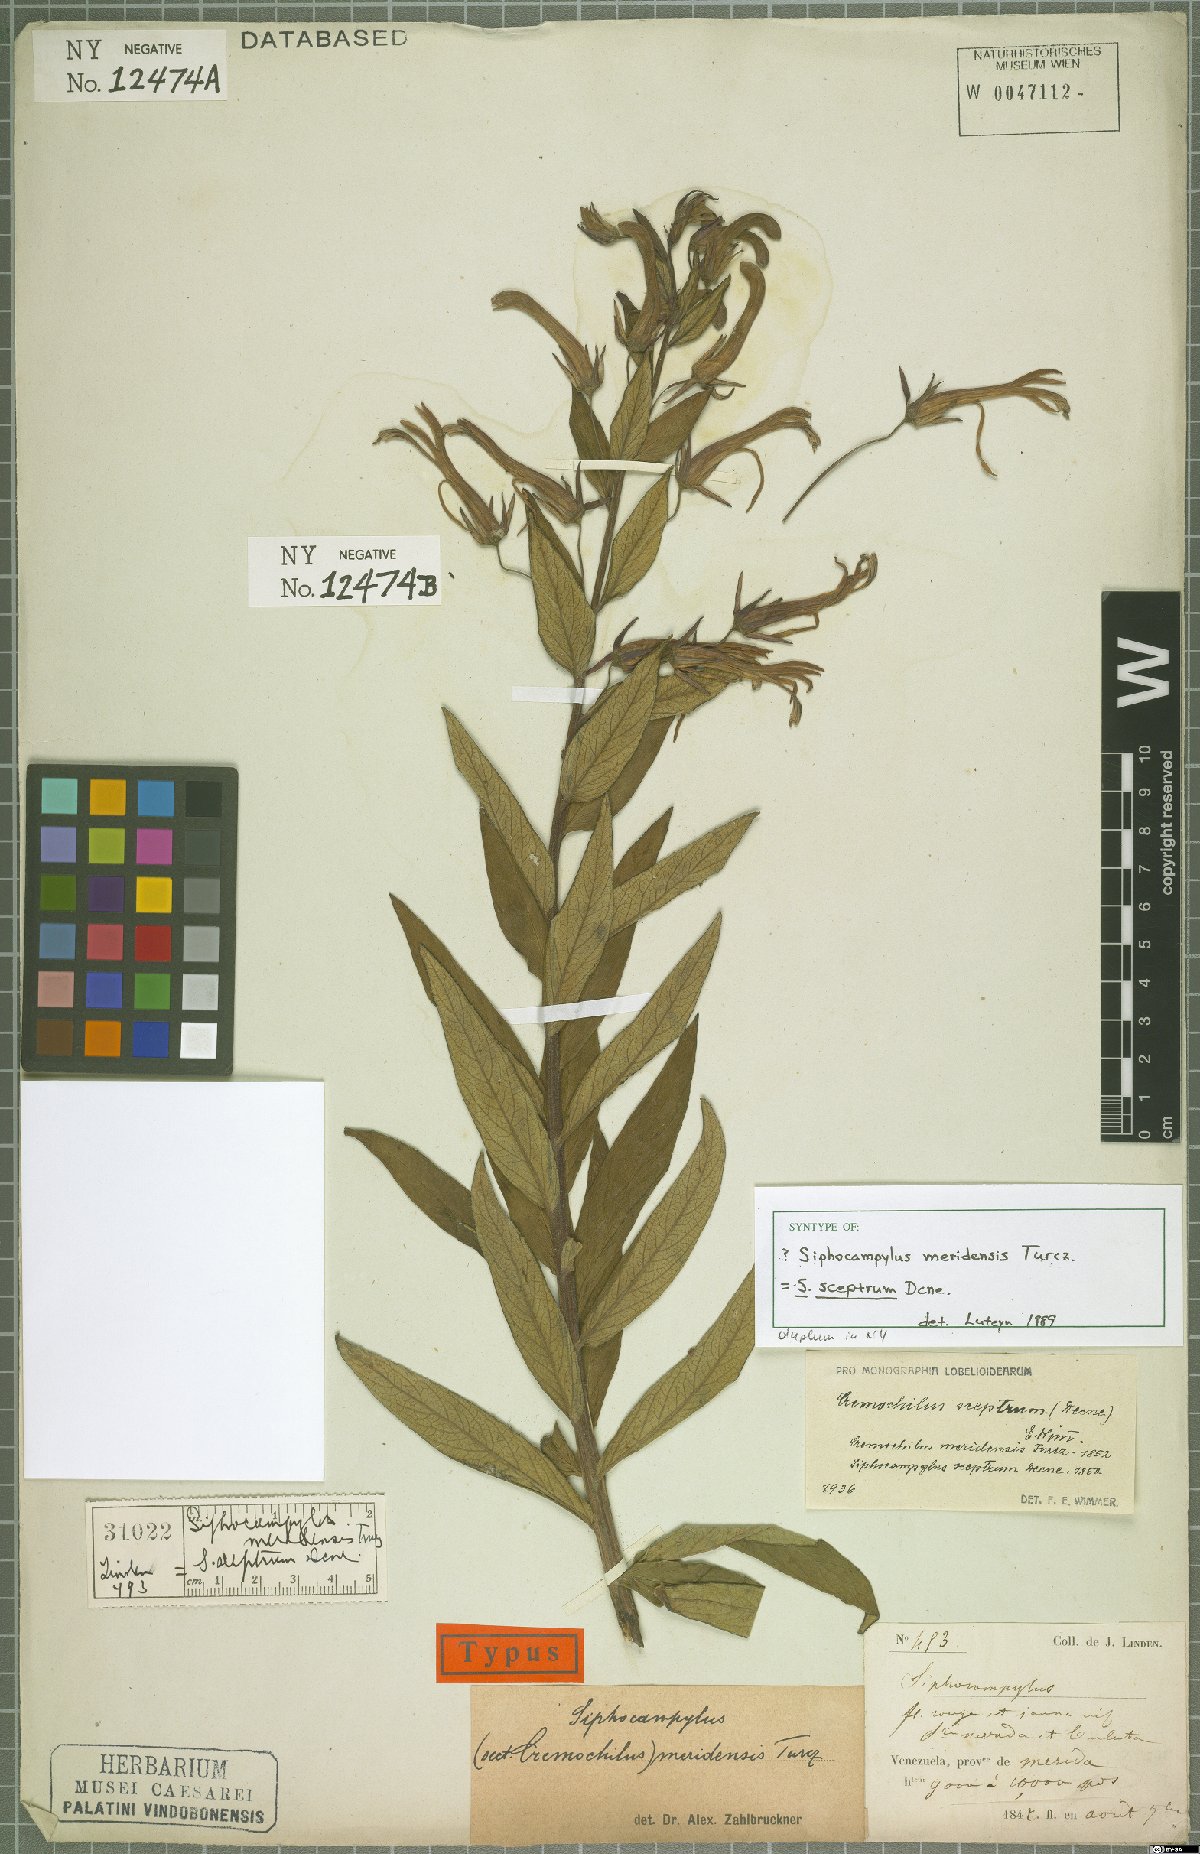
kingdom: Plantae
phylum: Tracheophyta
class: Magnoliopsida
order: Asterales
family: Campanulaceae
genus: Siphocampylus
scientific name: Siphocampylus sceptrum
